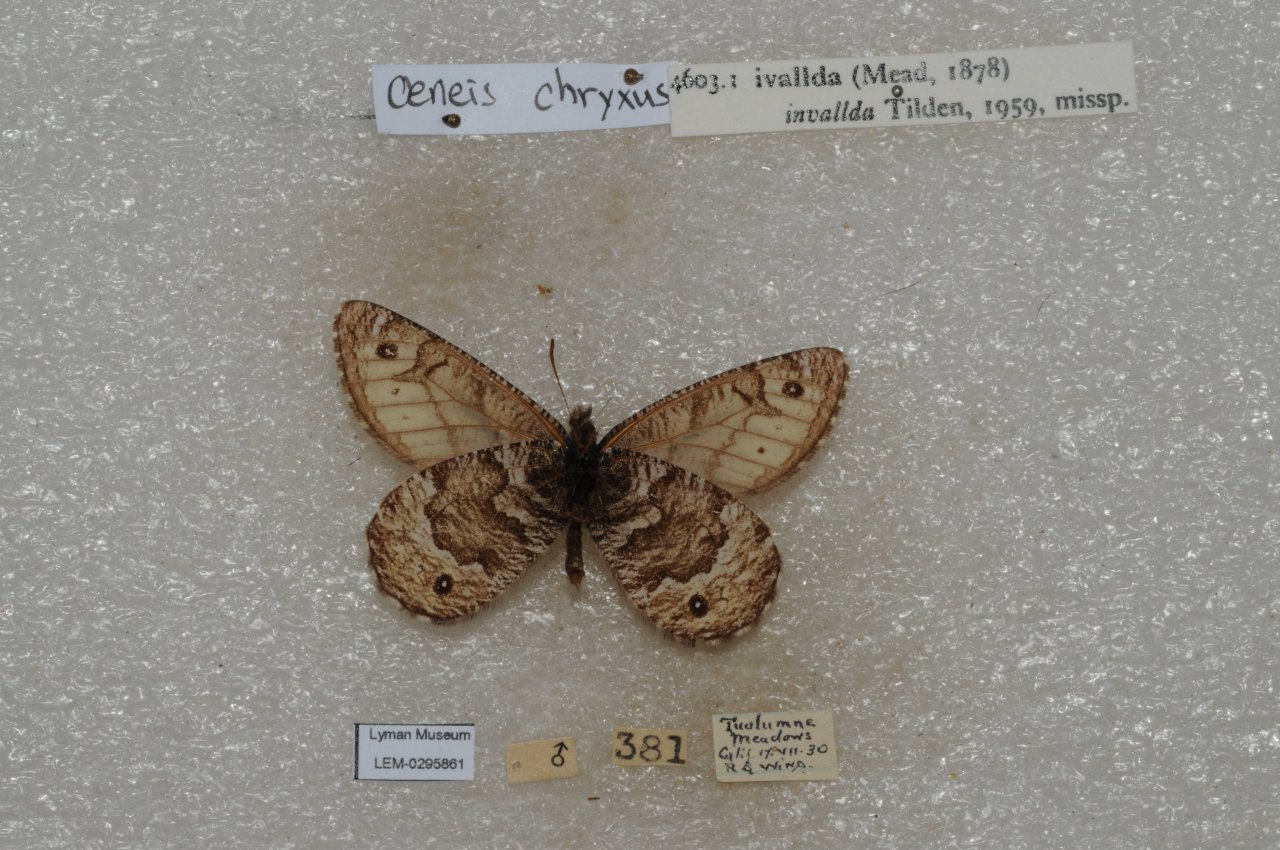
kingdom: Animalia
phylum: Arthropoda
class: Insecta
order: Lepidoptera
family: Nymphalidae
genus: Oeneis
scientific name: Oeneis chryxus
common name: Chryxus Arctic
